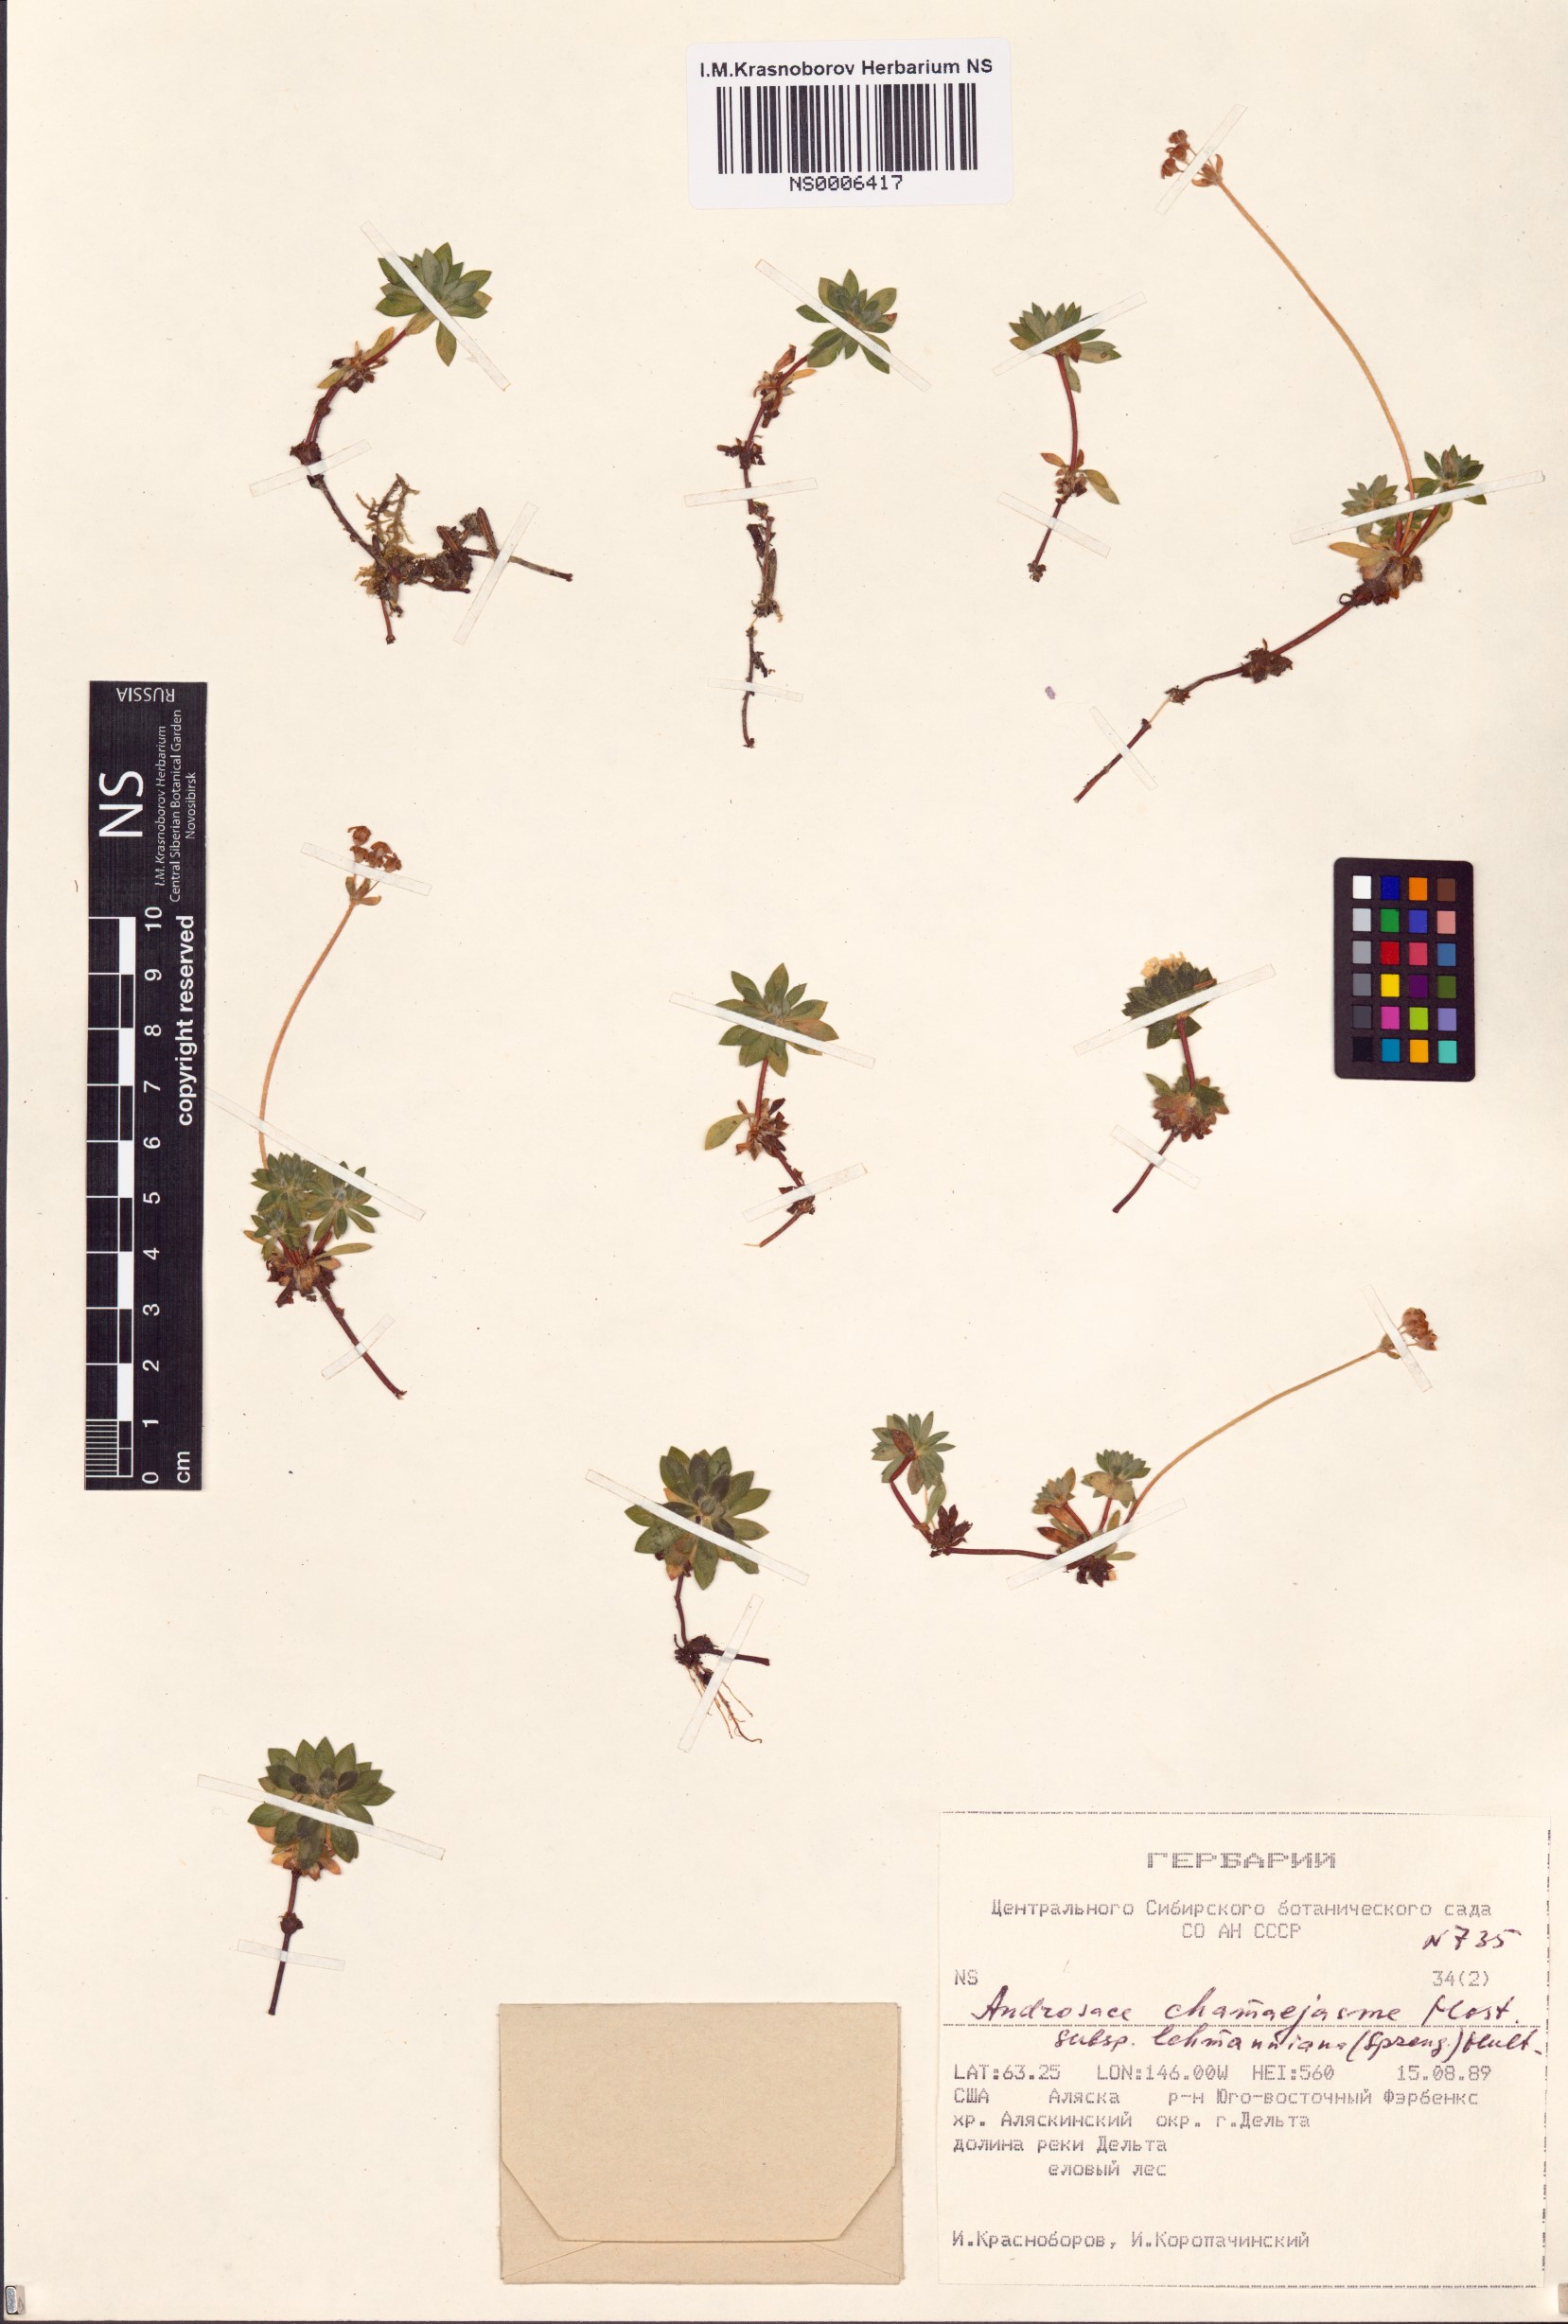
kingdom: Plantae
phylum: Tracheophyta
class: Magnoliopsida
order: Ericales
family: Primulaceae
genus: Androsace
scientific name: Androsace chamaejasme
